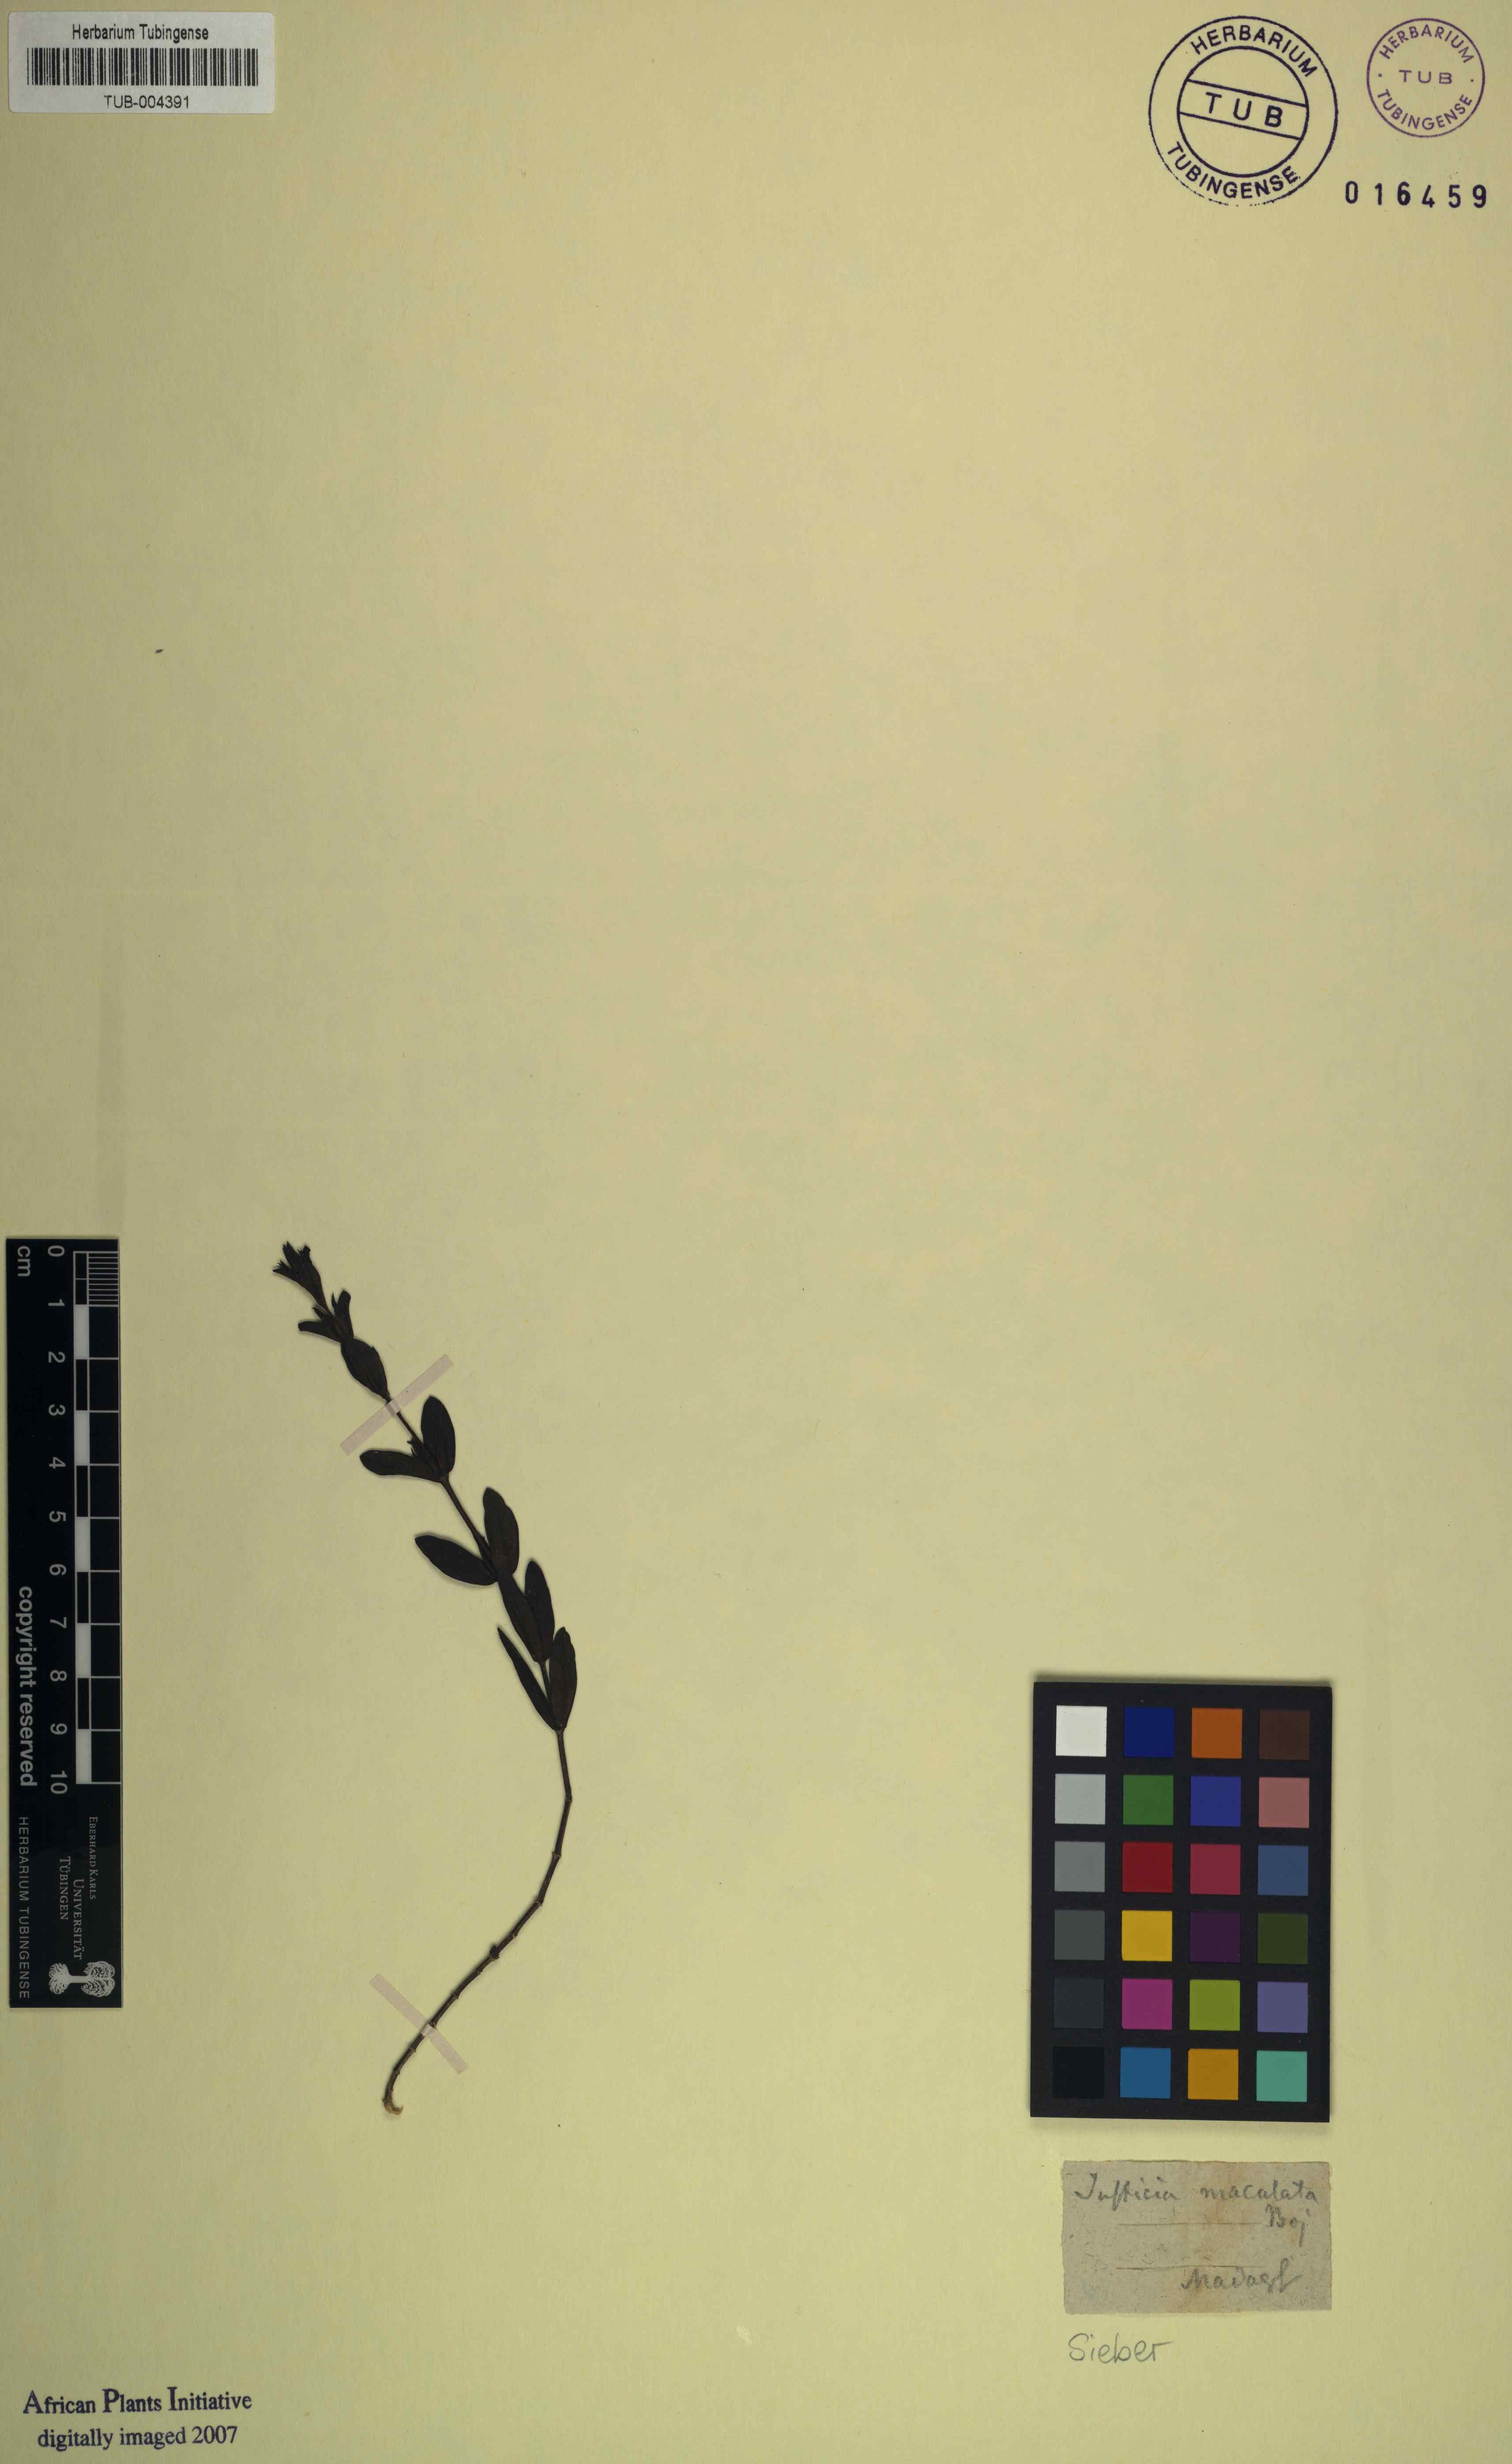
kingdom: Plantae
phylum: Tracheophyta
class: Magnoliopsida
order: Lamiales
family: Acanthaceae
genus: Hypoestes
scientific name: Hypoestes maculosa
